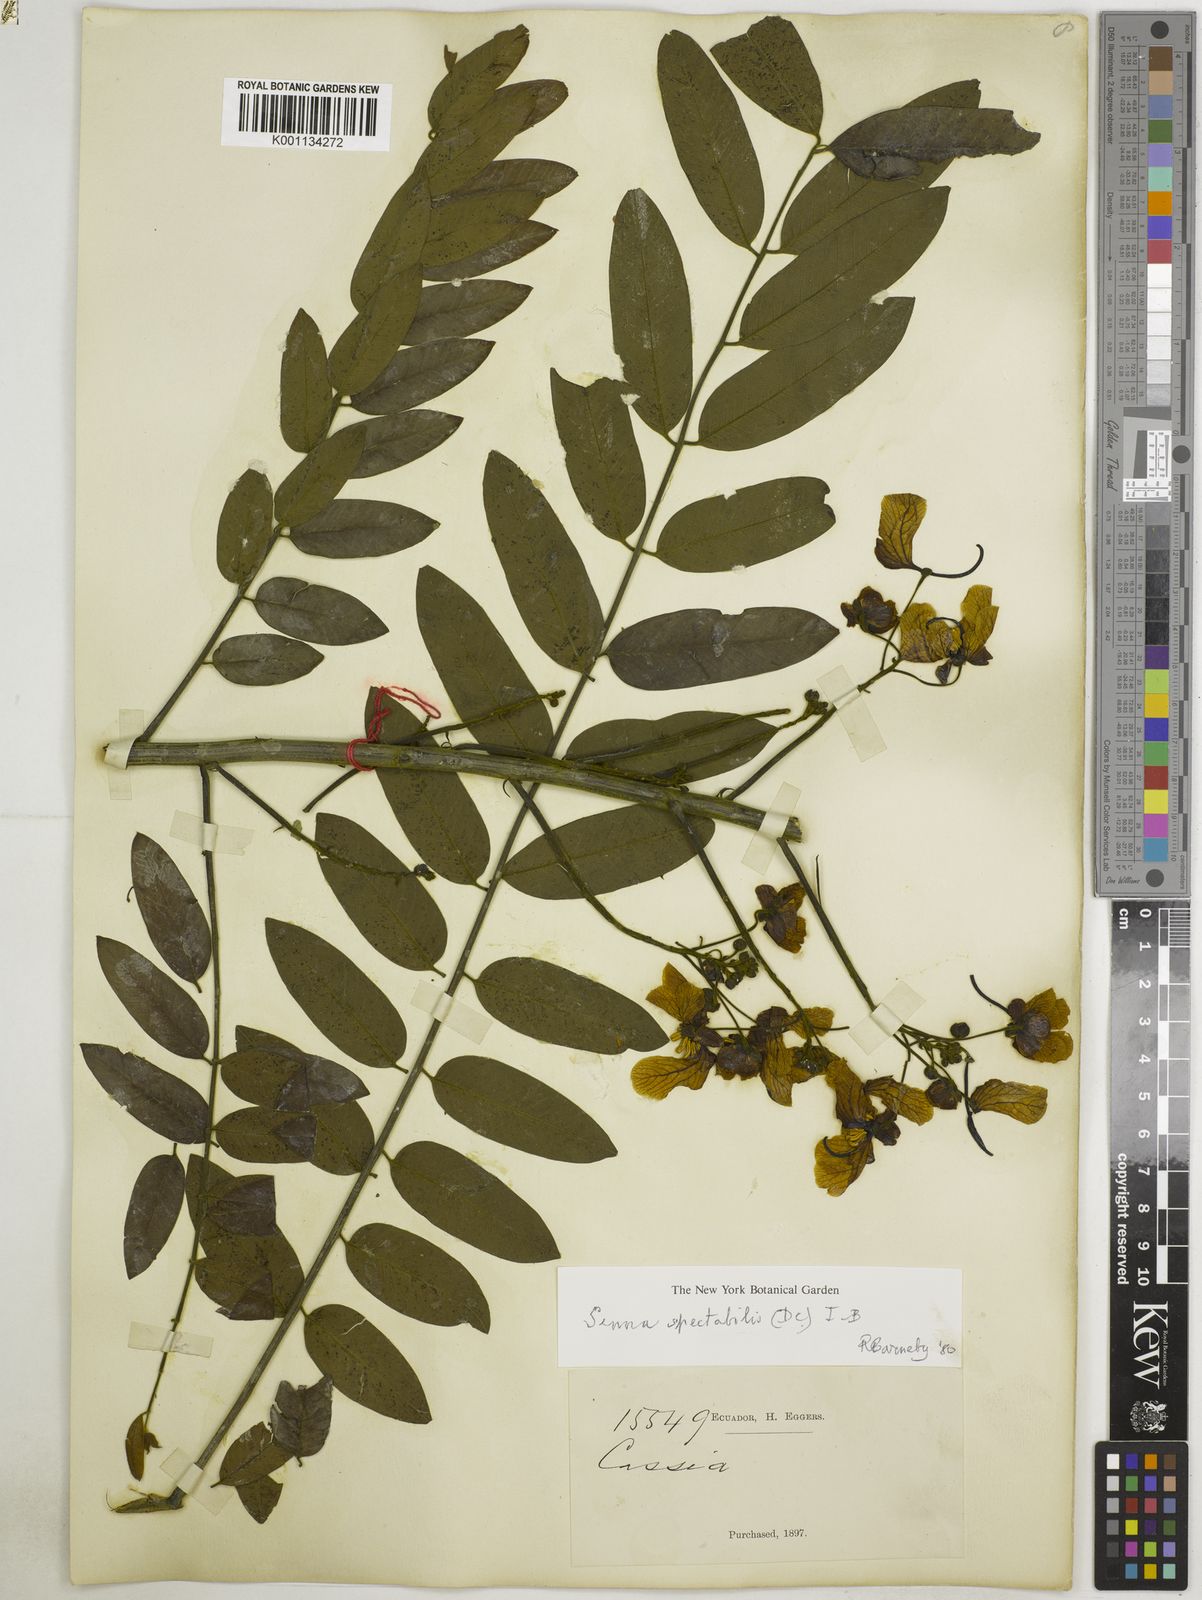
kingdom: Plantae
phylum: Tracheophyta
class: Magnoliopsida
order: Fabales
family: Fabaceae
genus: Senna
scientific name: Senna spectabilis
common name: Casia amarilla
